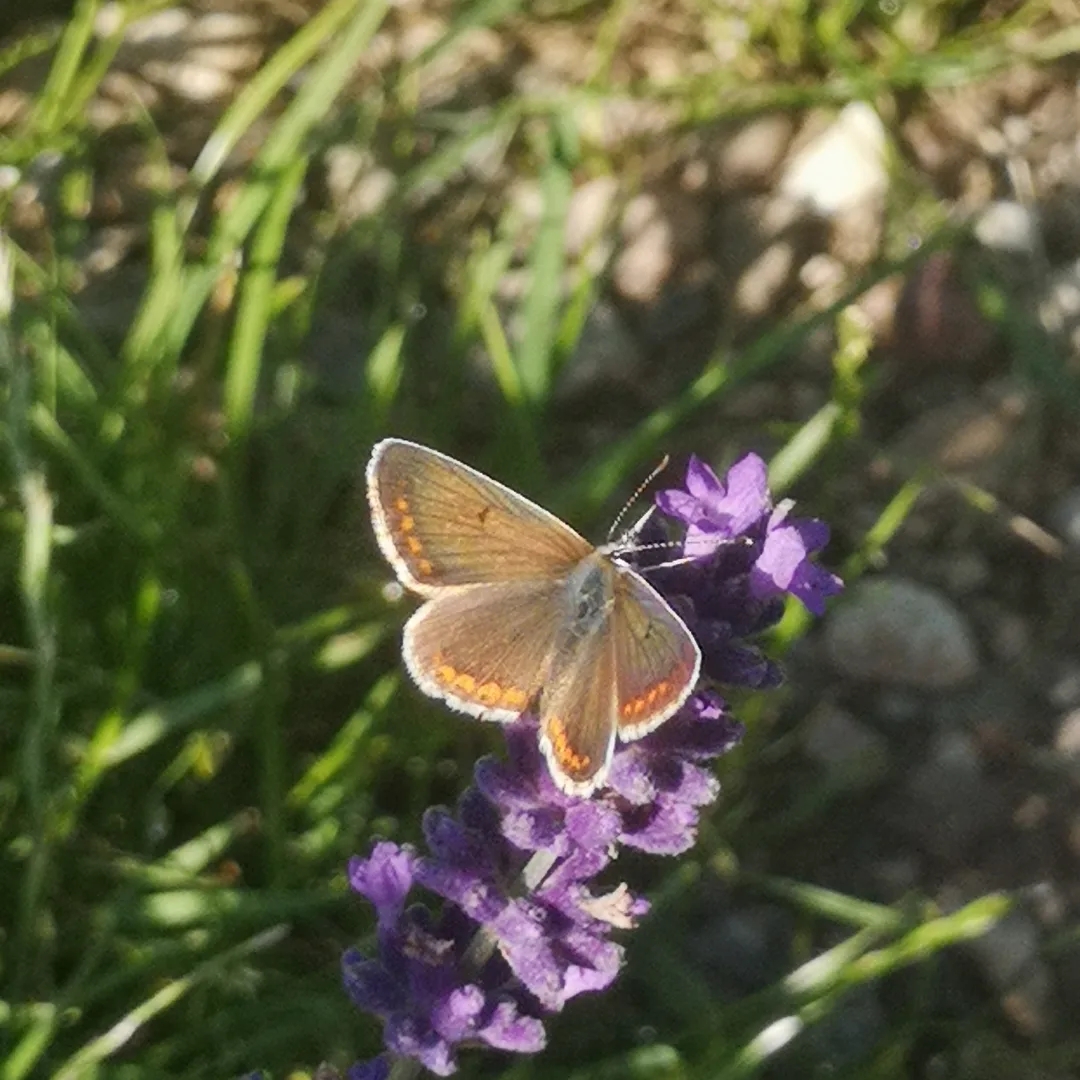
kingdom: Animalia
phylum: Arthropoda
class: Insecta
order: Lepidoptera
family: Lycaenidae
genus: Aricia
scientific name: Aricia agestis
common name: Rødplettet blåfugl
